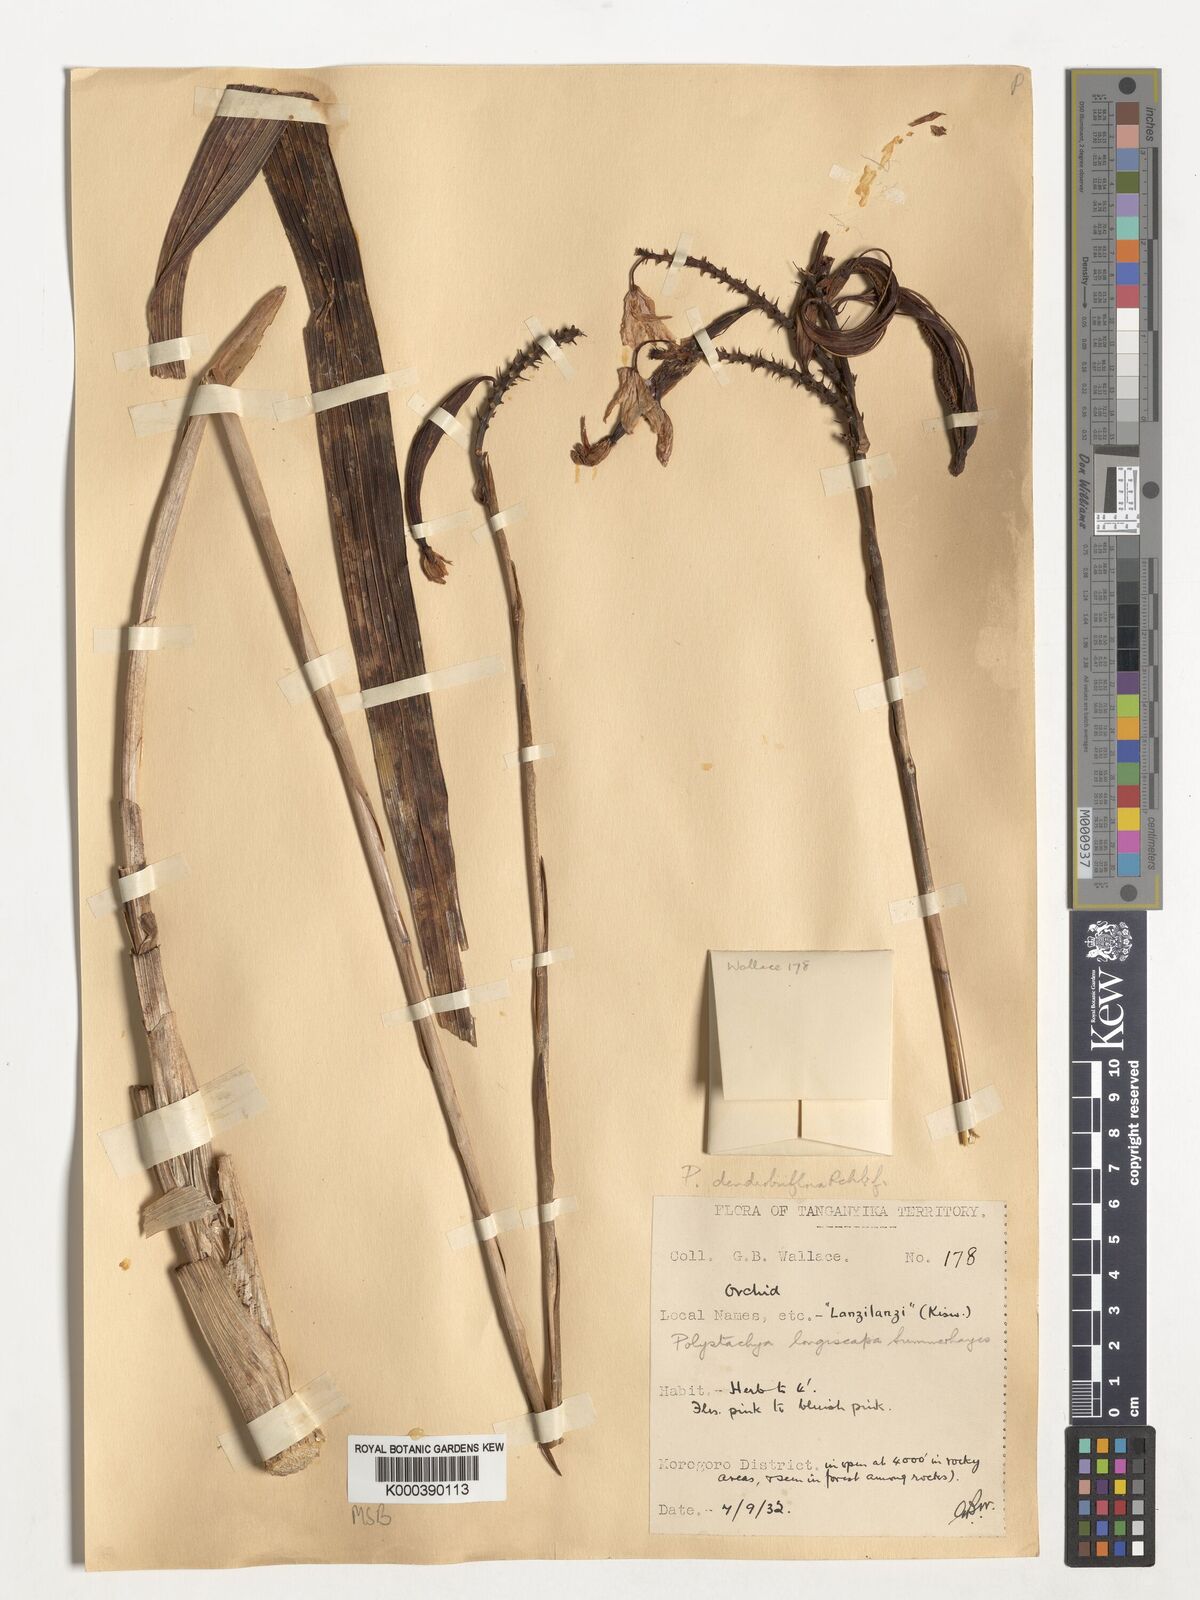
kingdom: Plantae
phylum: Tracheophyta
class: Liliopsida
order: Asparagales
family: Orchidaceae
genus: Polystachya
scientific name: Polystachya longiscapa
